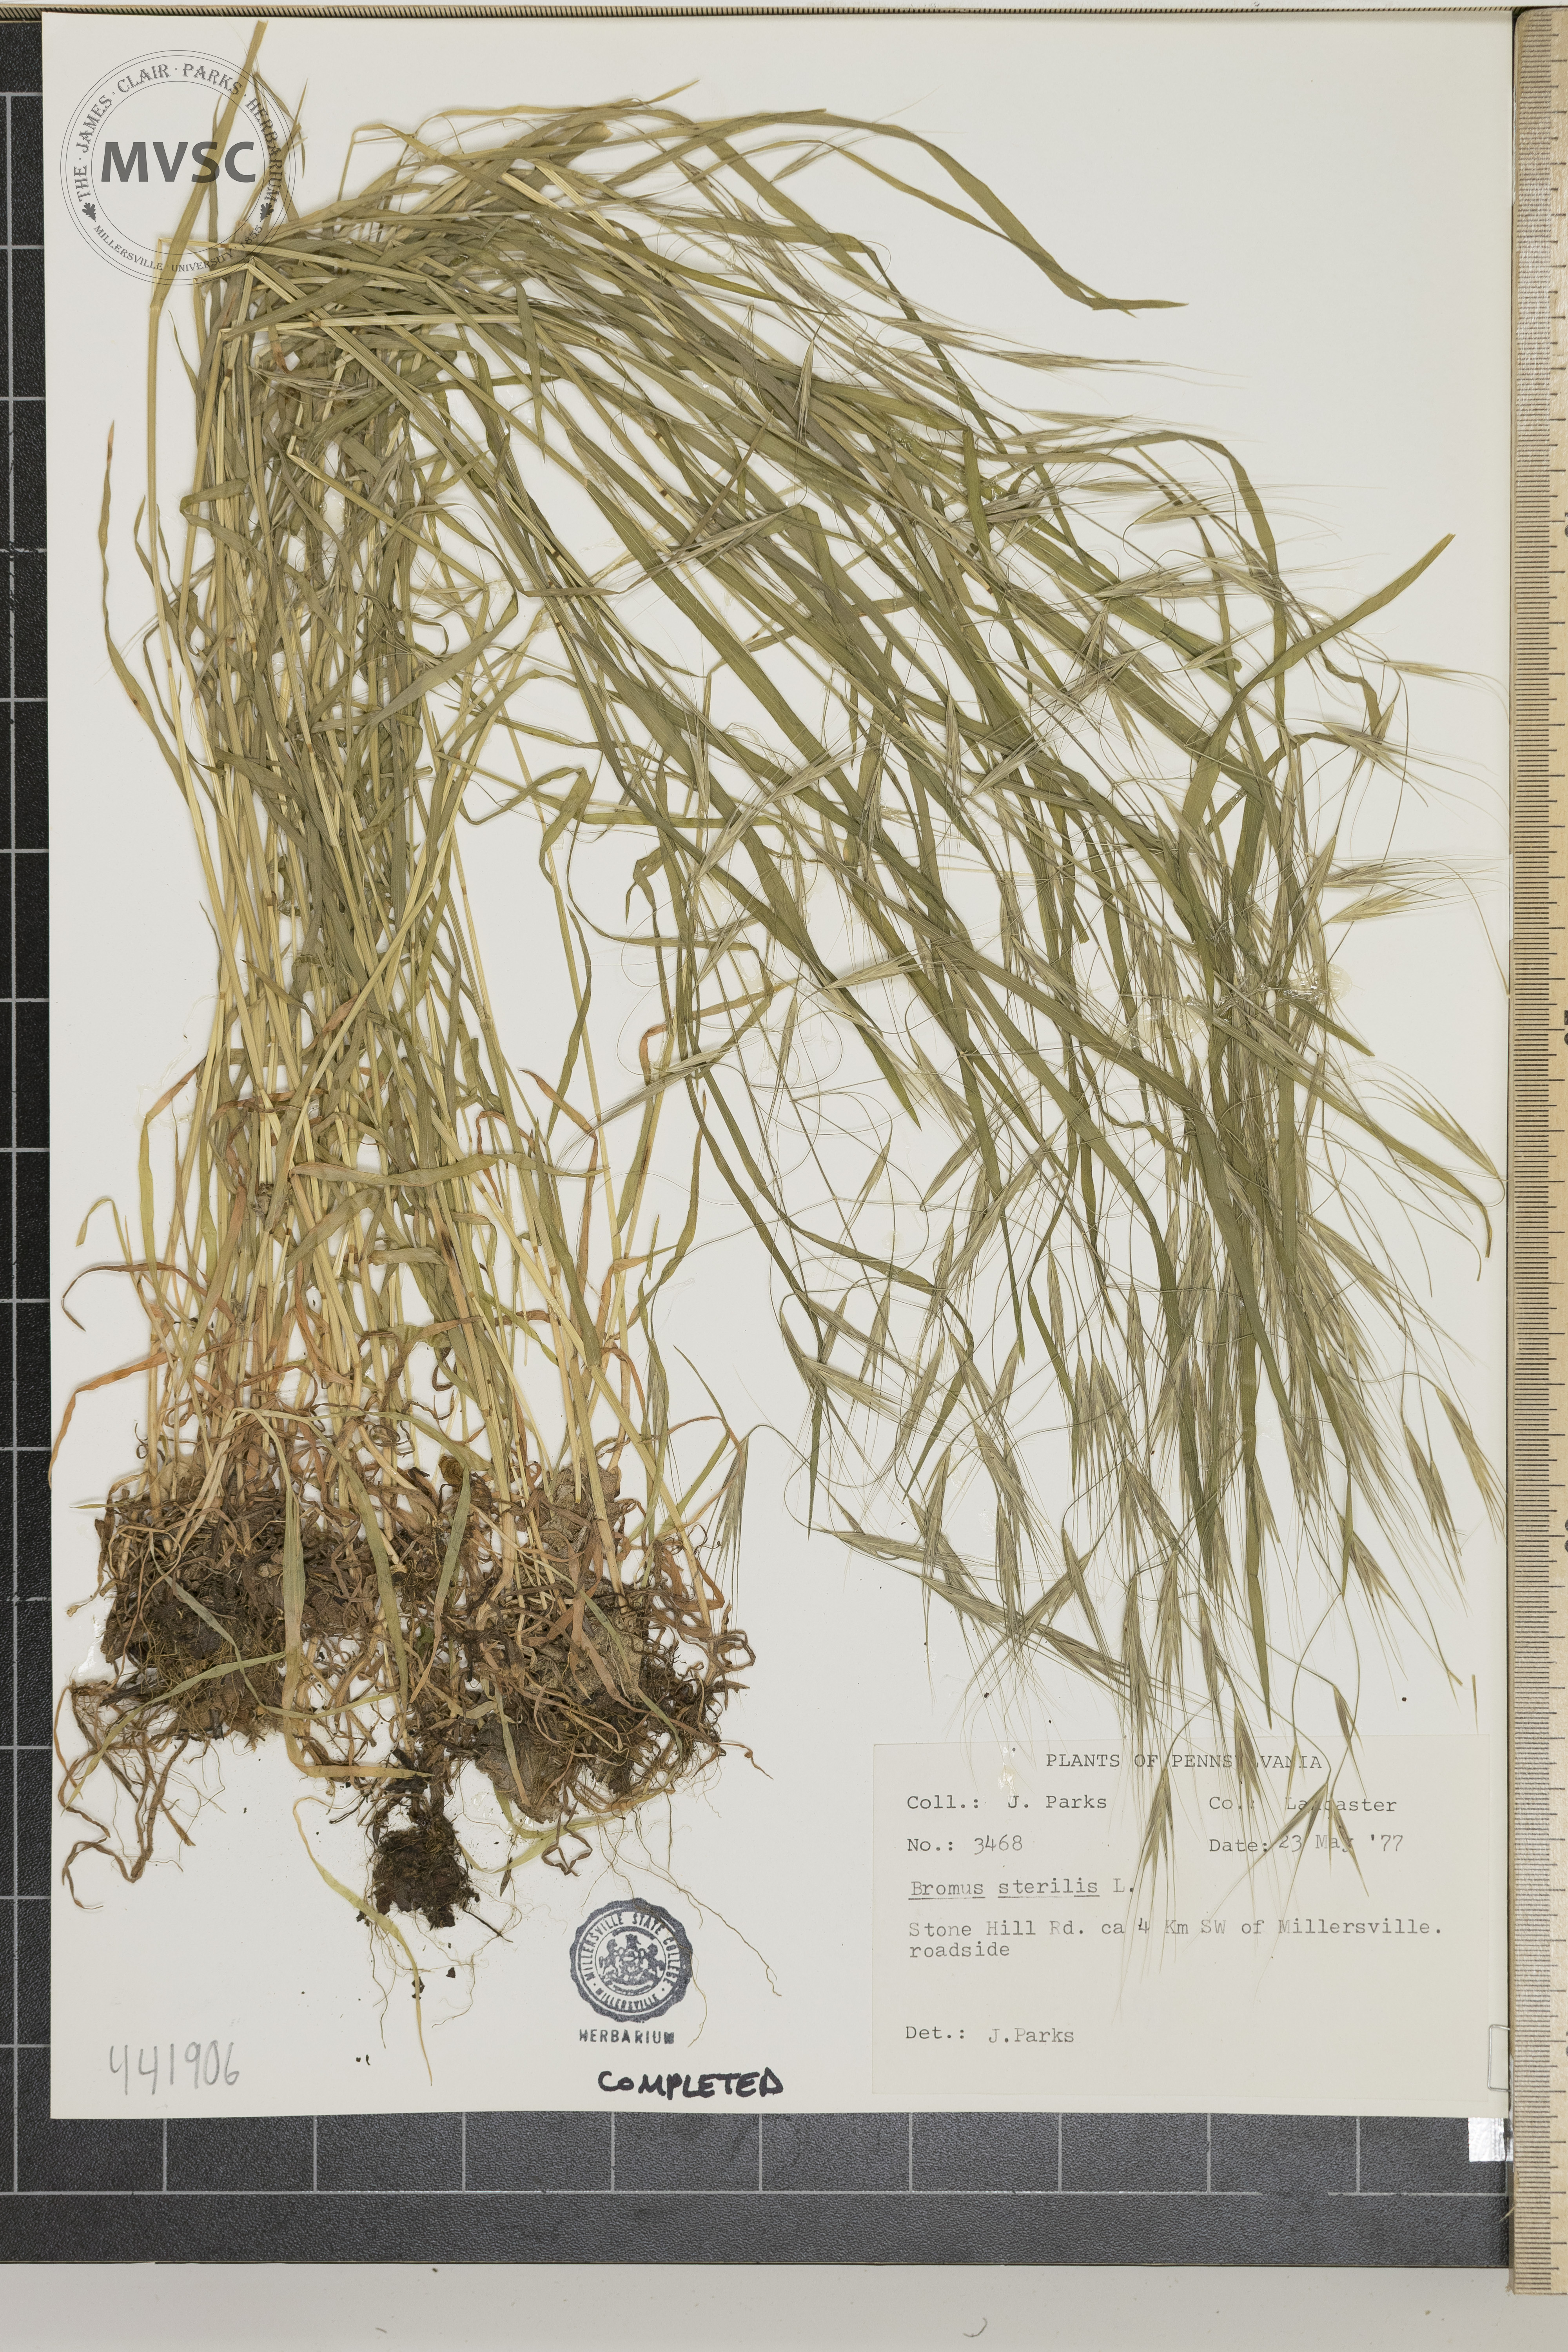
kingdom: Plantae
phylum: Tracheophyta
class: Liliopsida
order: Poales
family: Poaceae
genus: Bromus
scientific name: Bromus sterilis
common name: Poverty brome
